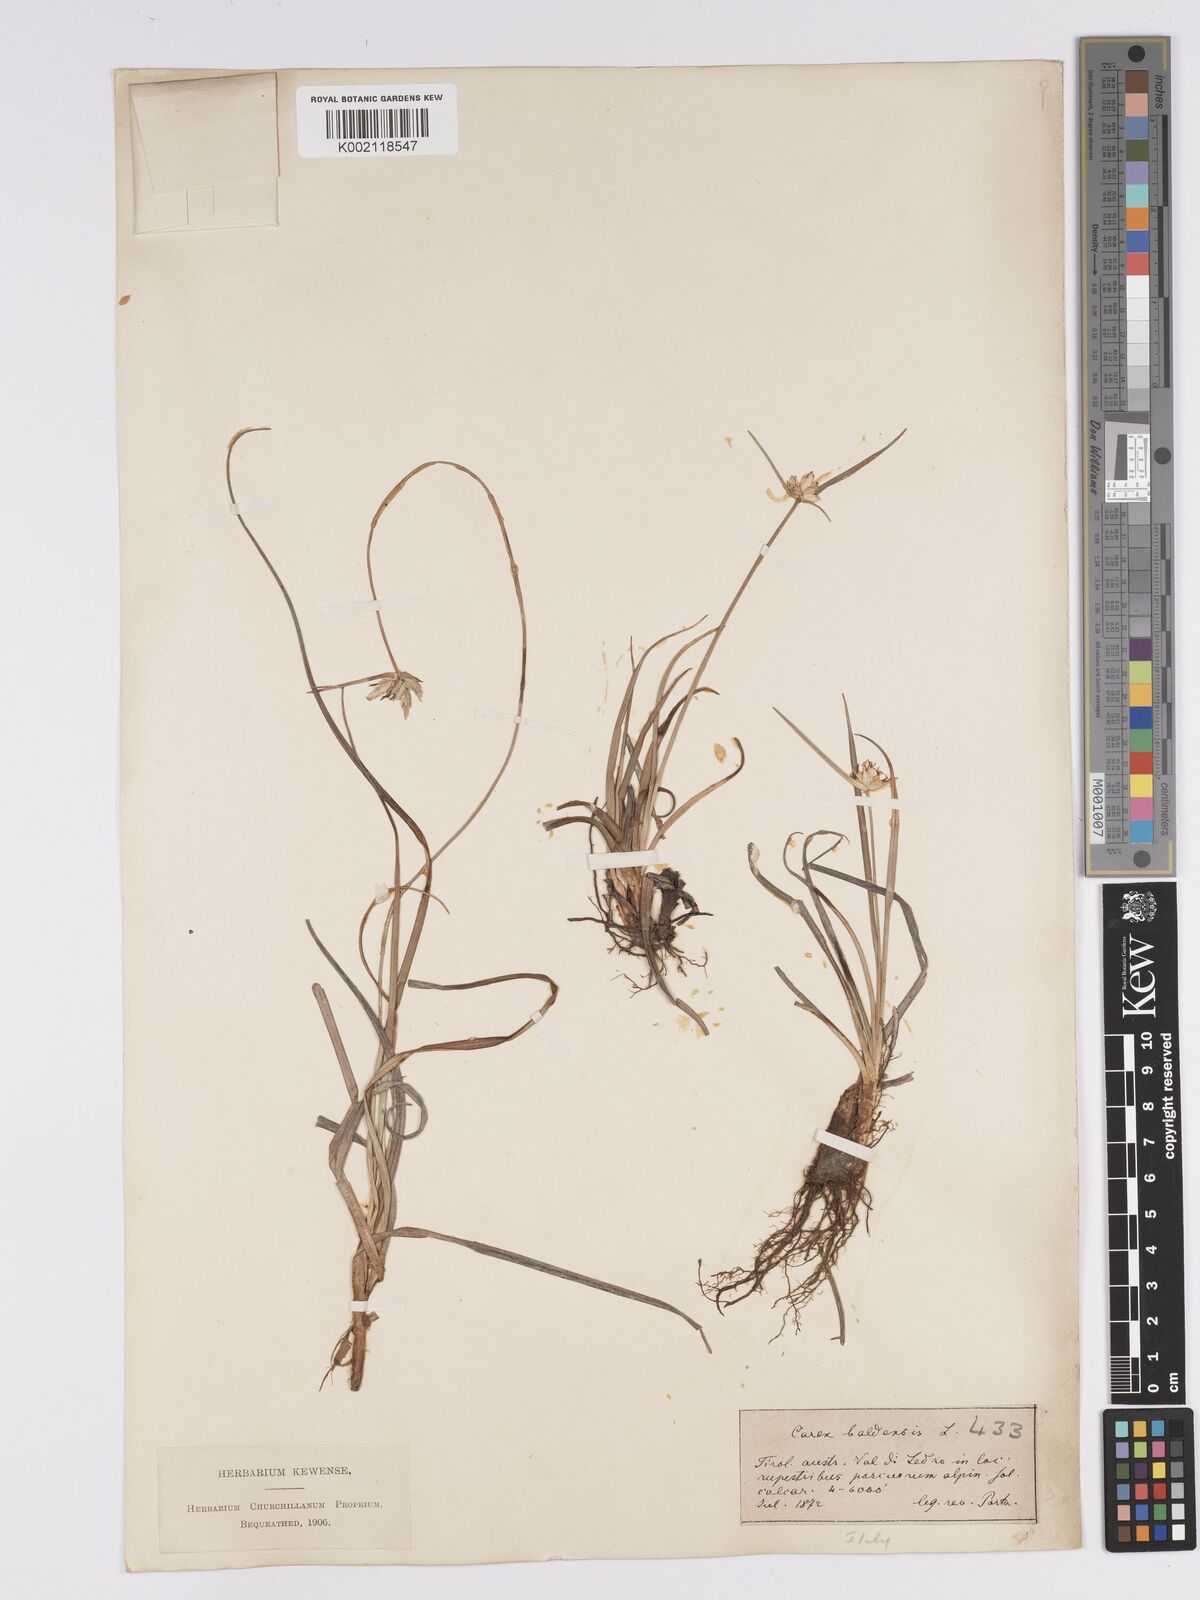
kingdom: Plantae
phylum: Tracheophyta
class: Liliopsida
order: Poales
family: Cyperaceae
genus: Carex
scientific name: Carex baldensis
